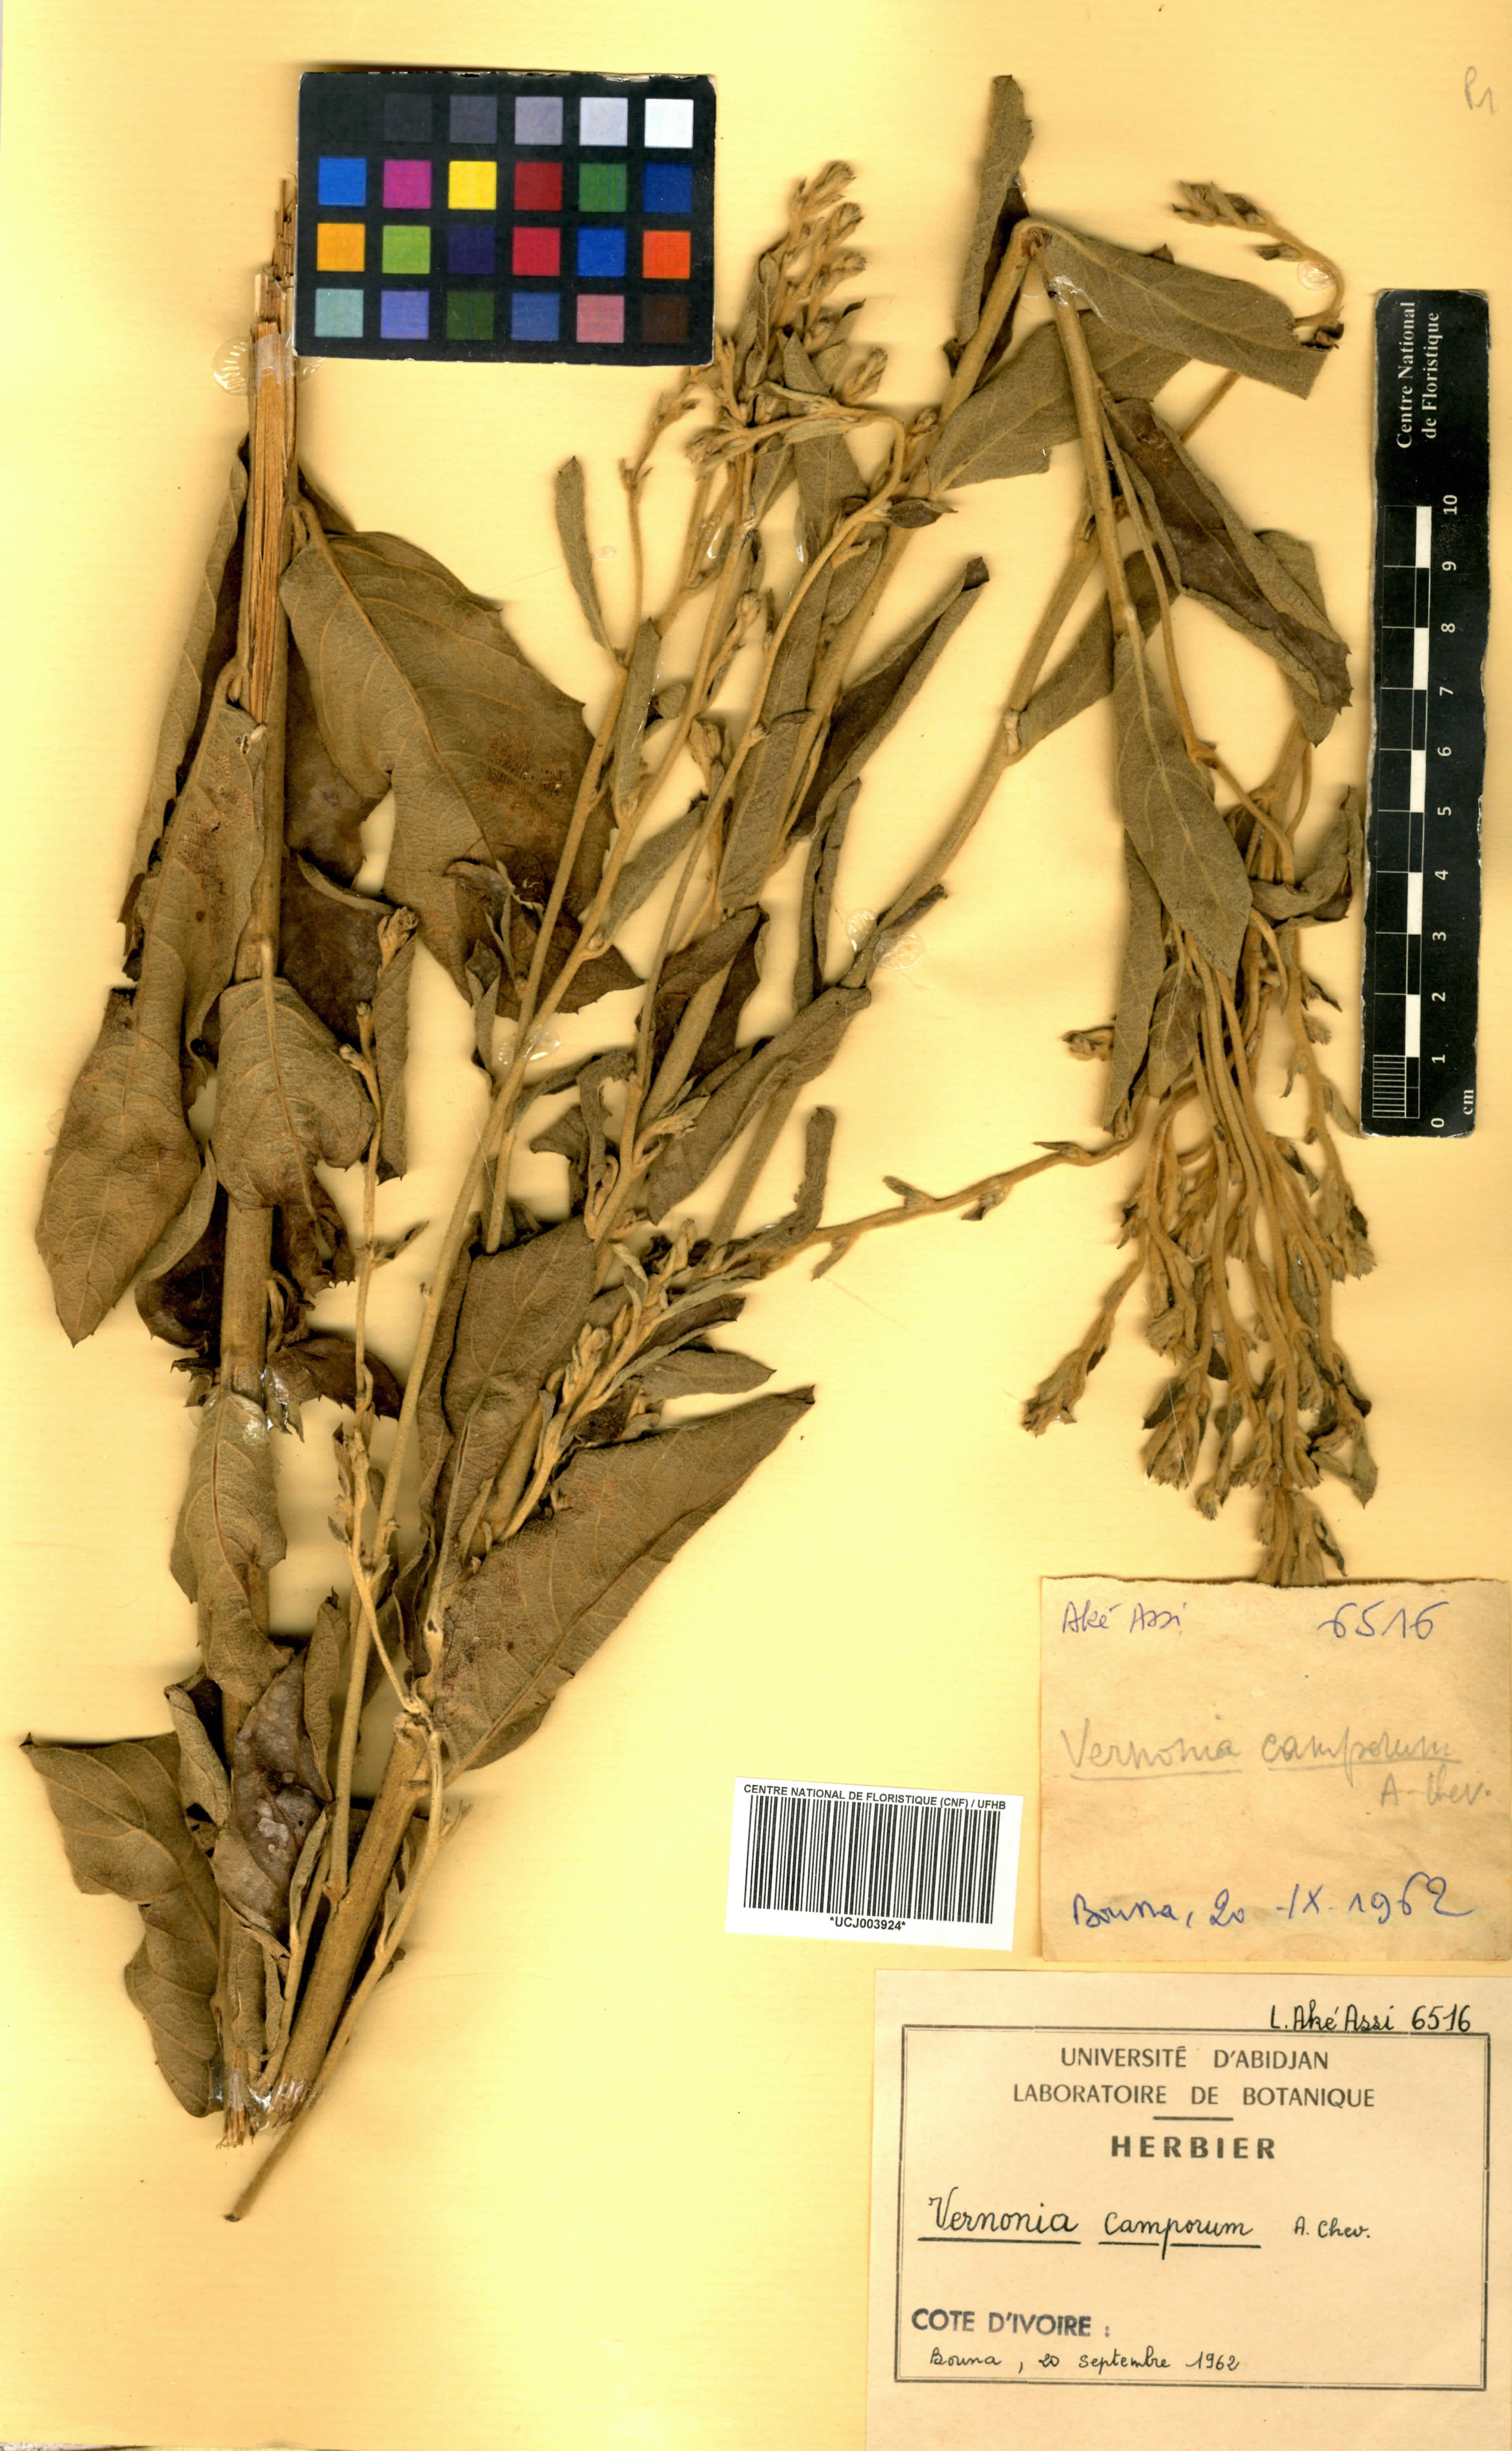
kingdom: Plantae
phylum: Tracheophyta
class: Magnoliopsida
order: Asterales
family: Asteraceae
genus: Vernoniastrum
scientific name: Vernoniastrum camporum
